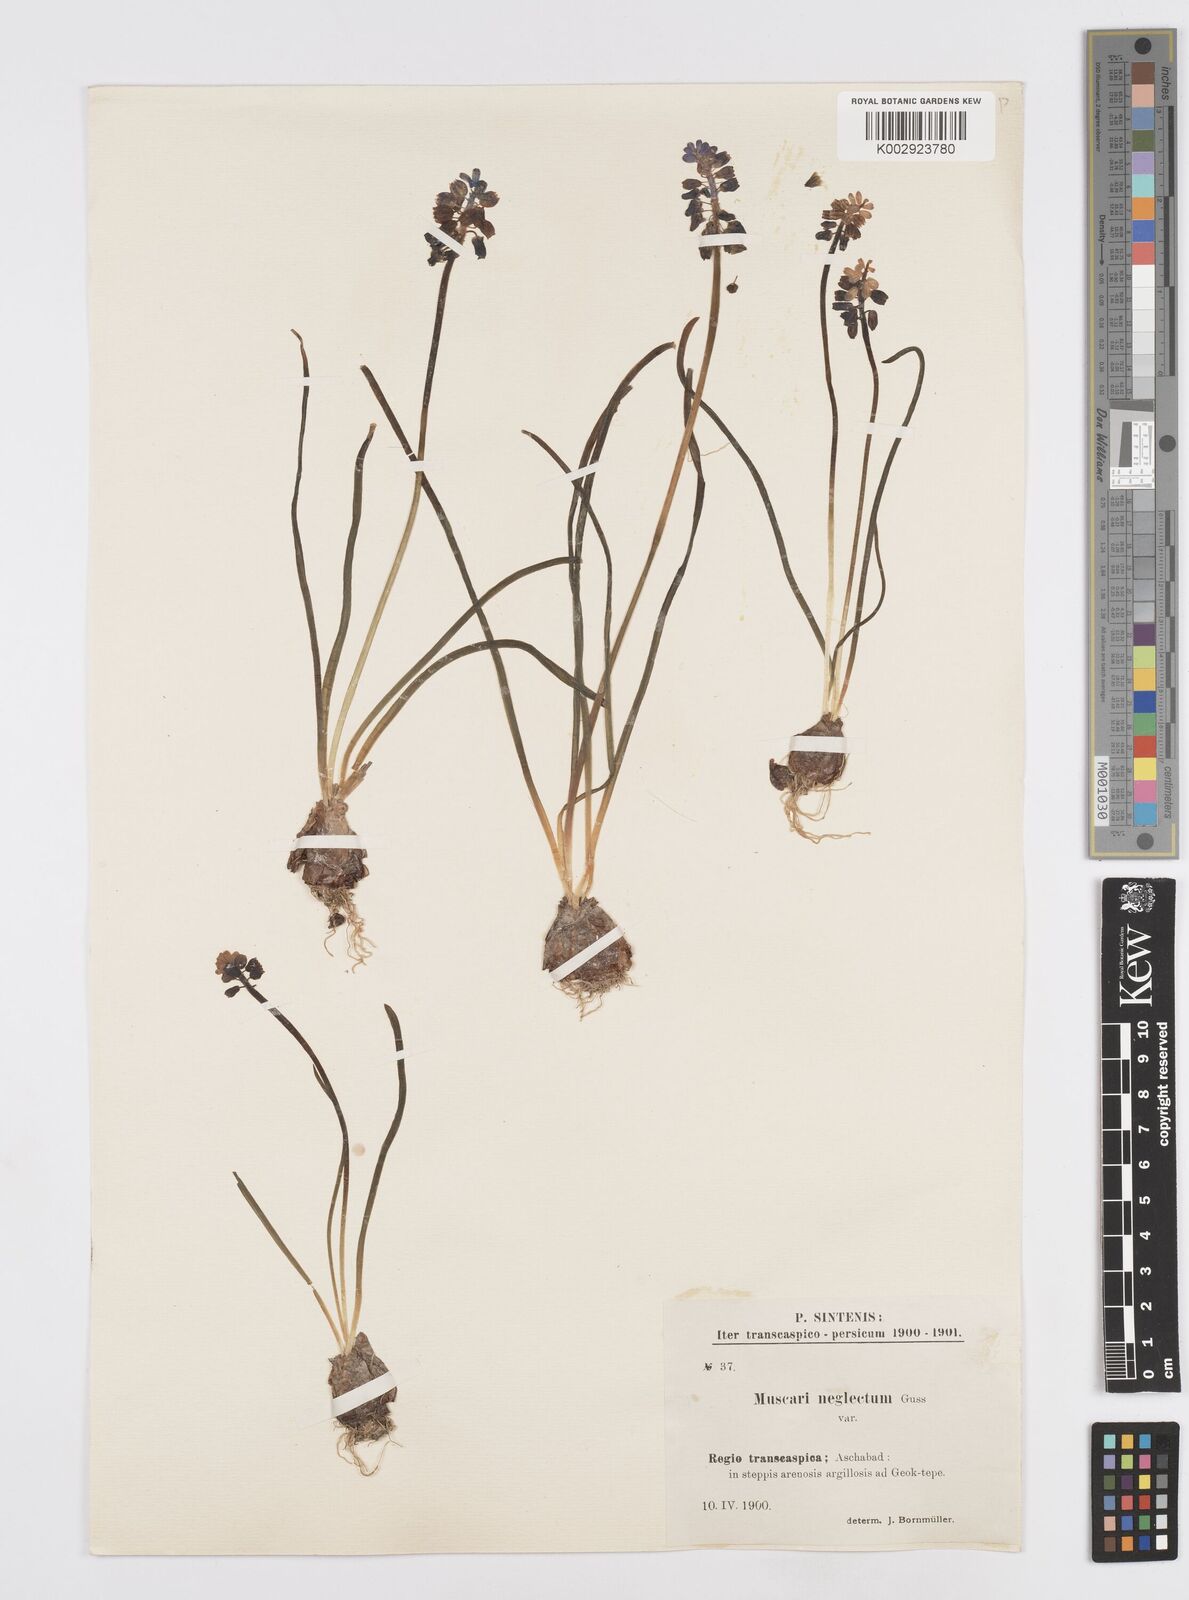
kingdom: Plantae
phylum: Tracheophyta
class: Liliopsida
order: Asparagales
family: Asparagaceae
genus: Muscari
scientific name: Muscari neglectum
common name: Grape-hyacinth
